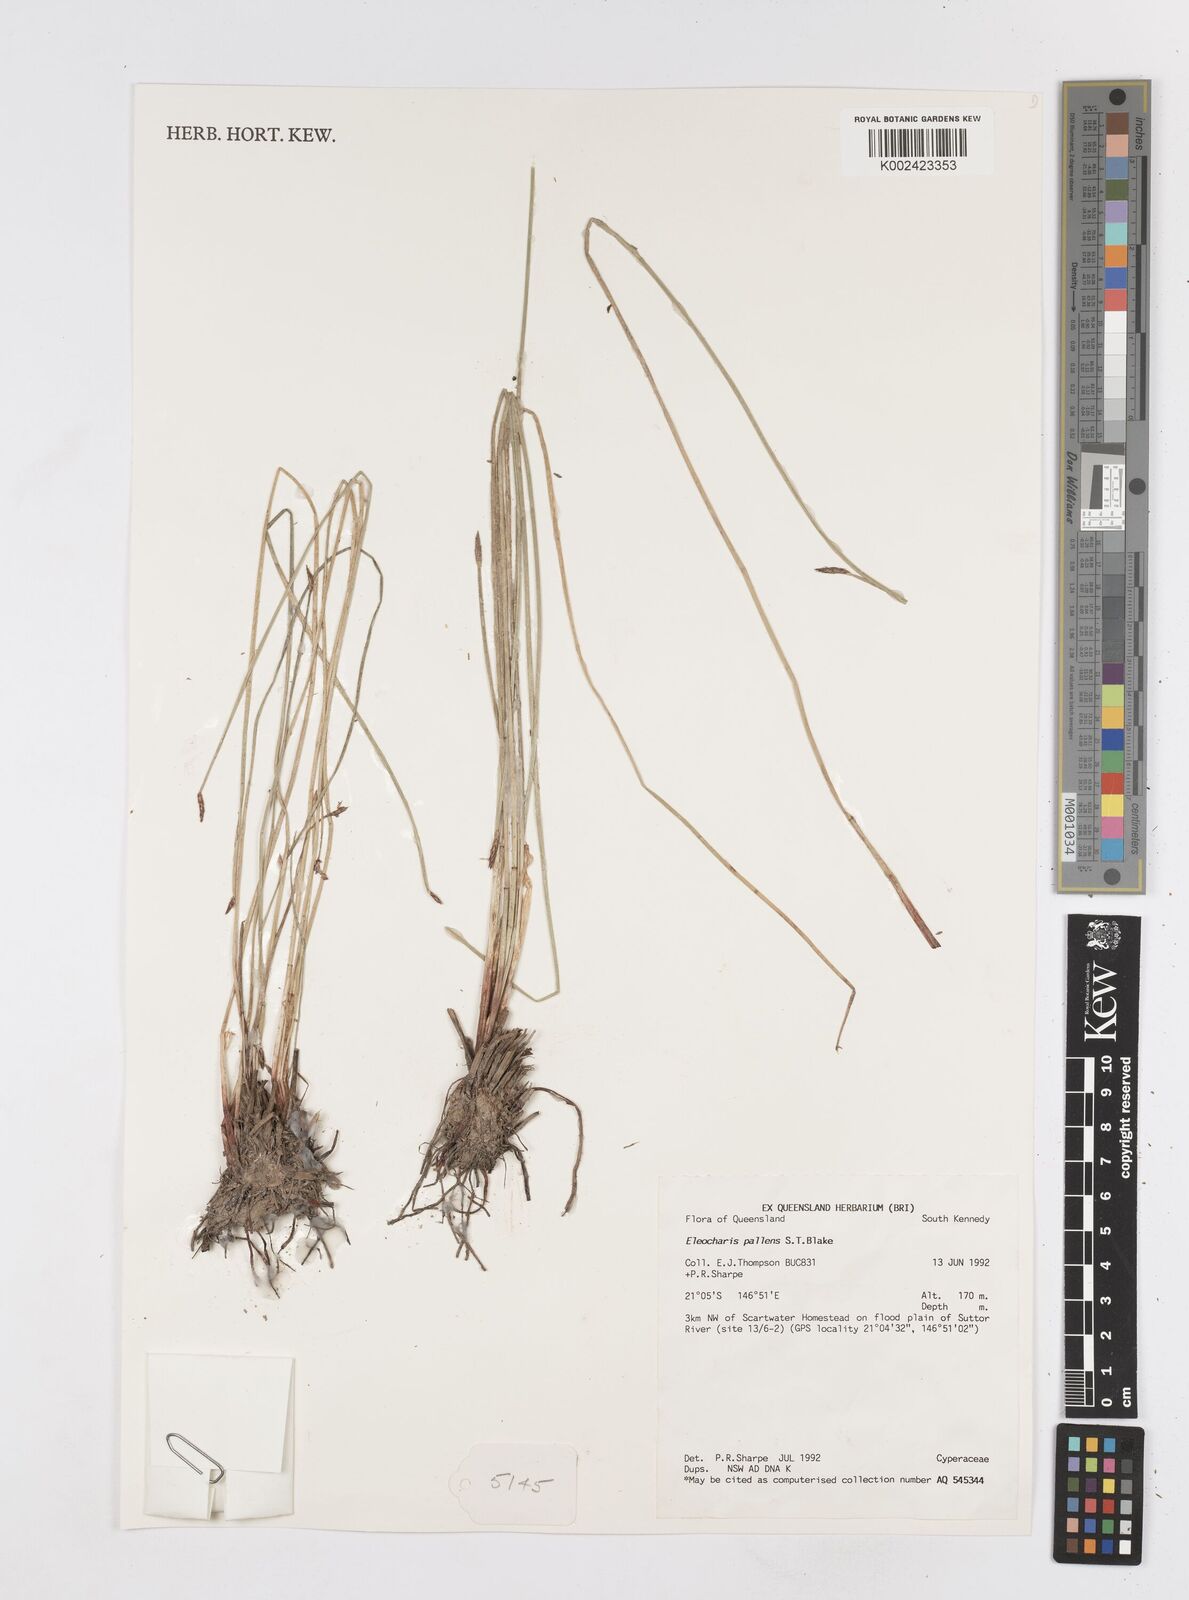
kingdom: Plantae
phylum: Tracheophyta
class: Liliopsida
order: Poales
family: Cyperaceae
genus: Eleocharis
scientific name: Eleocharis acuta
